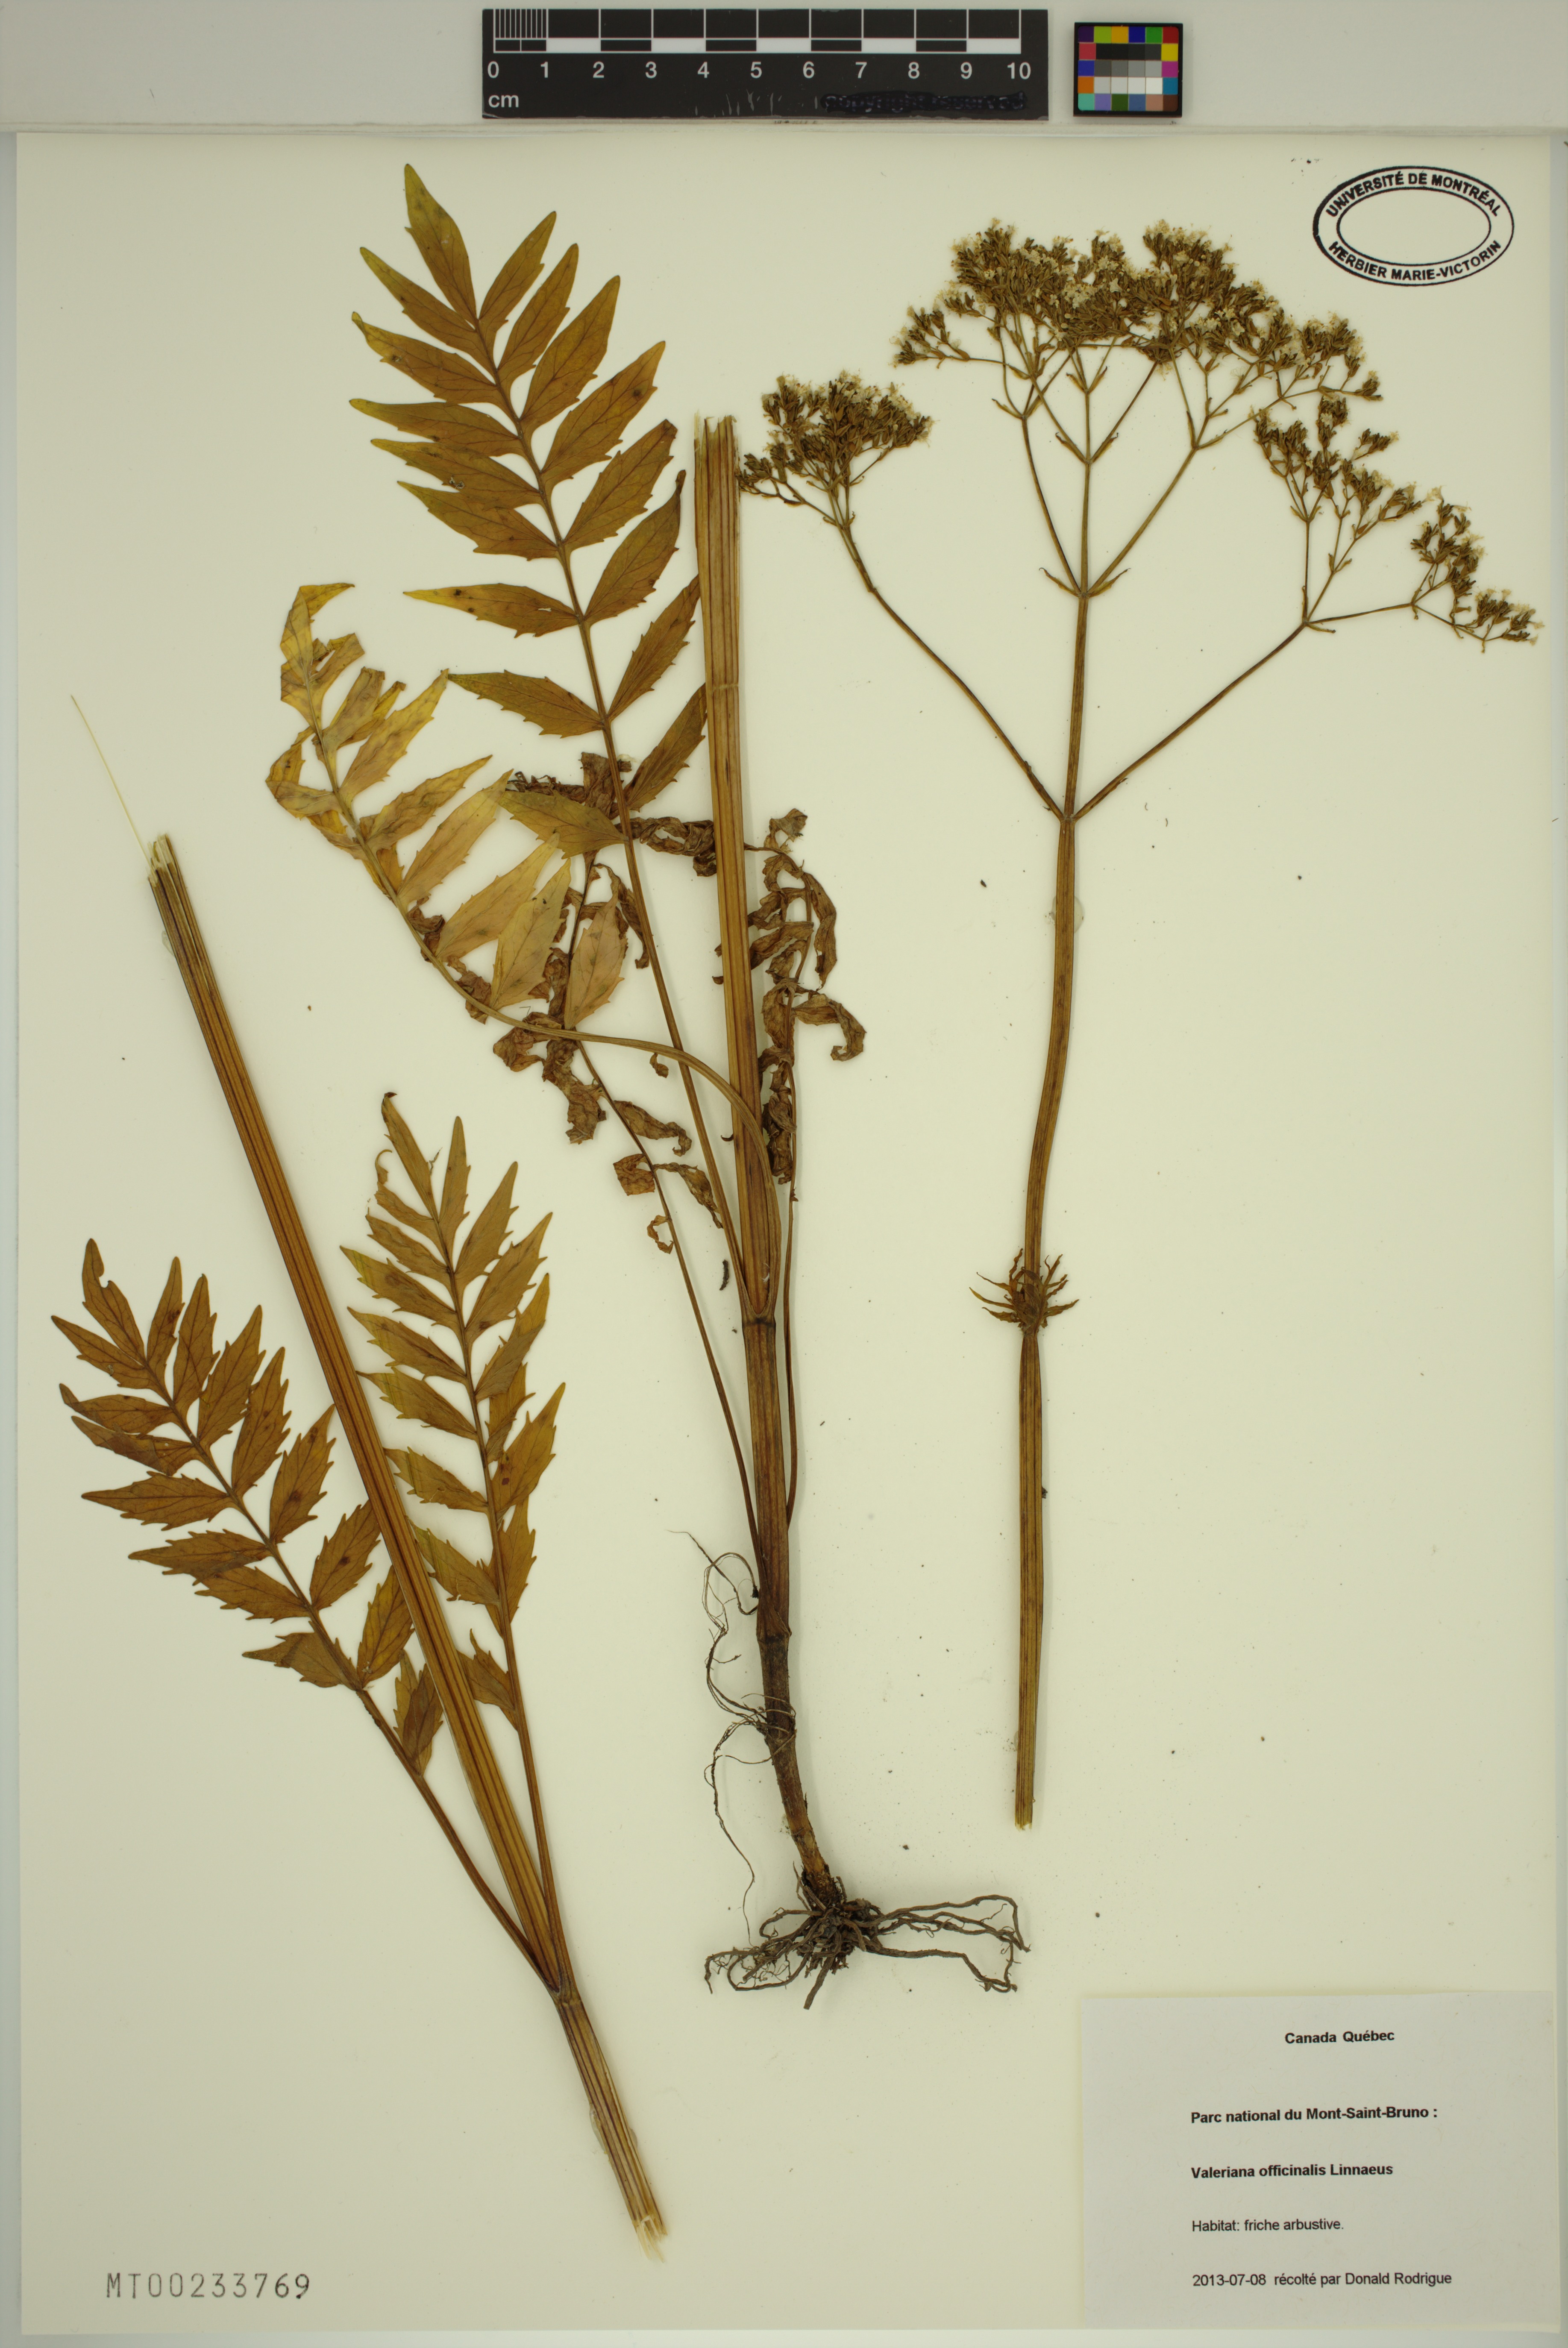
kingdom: Plantae
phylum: Tracheophyta
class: Magnoliopsida
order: Dipsacales
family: Caprifoliaceae
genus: Valeriana
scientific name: Valeriana officinalis
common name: Common valerian
